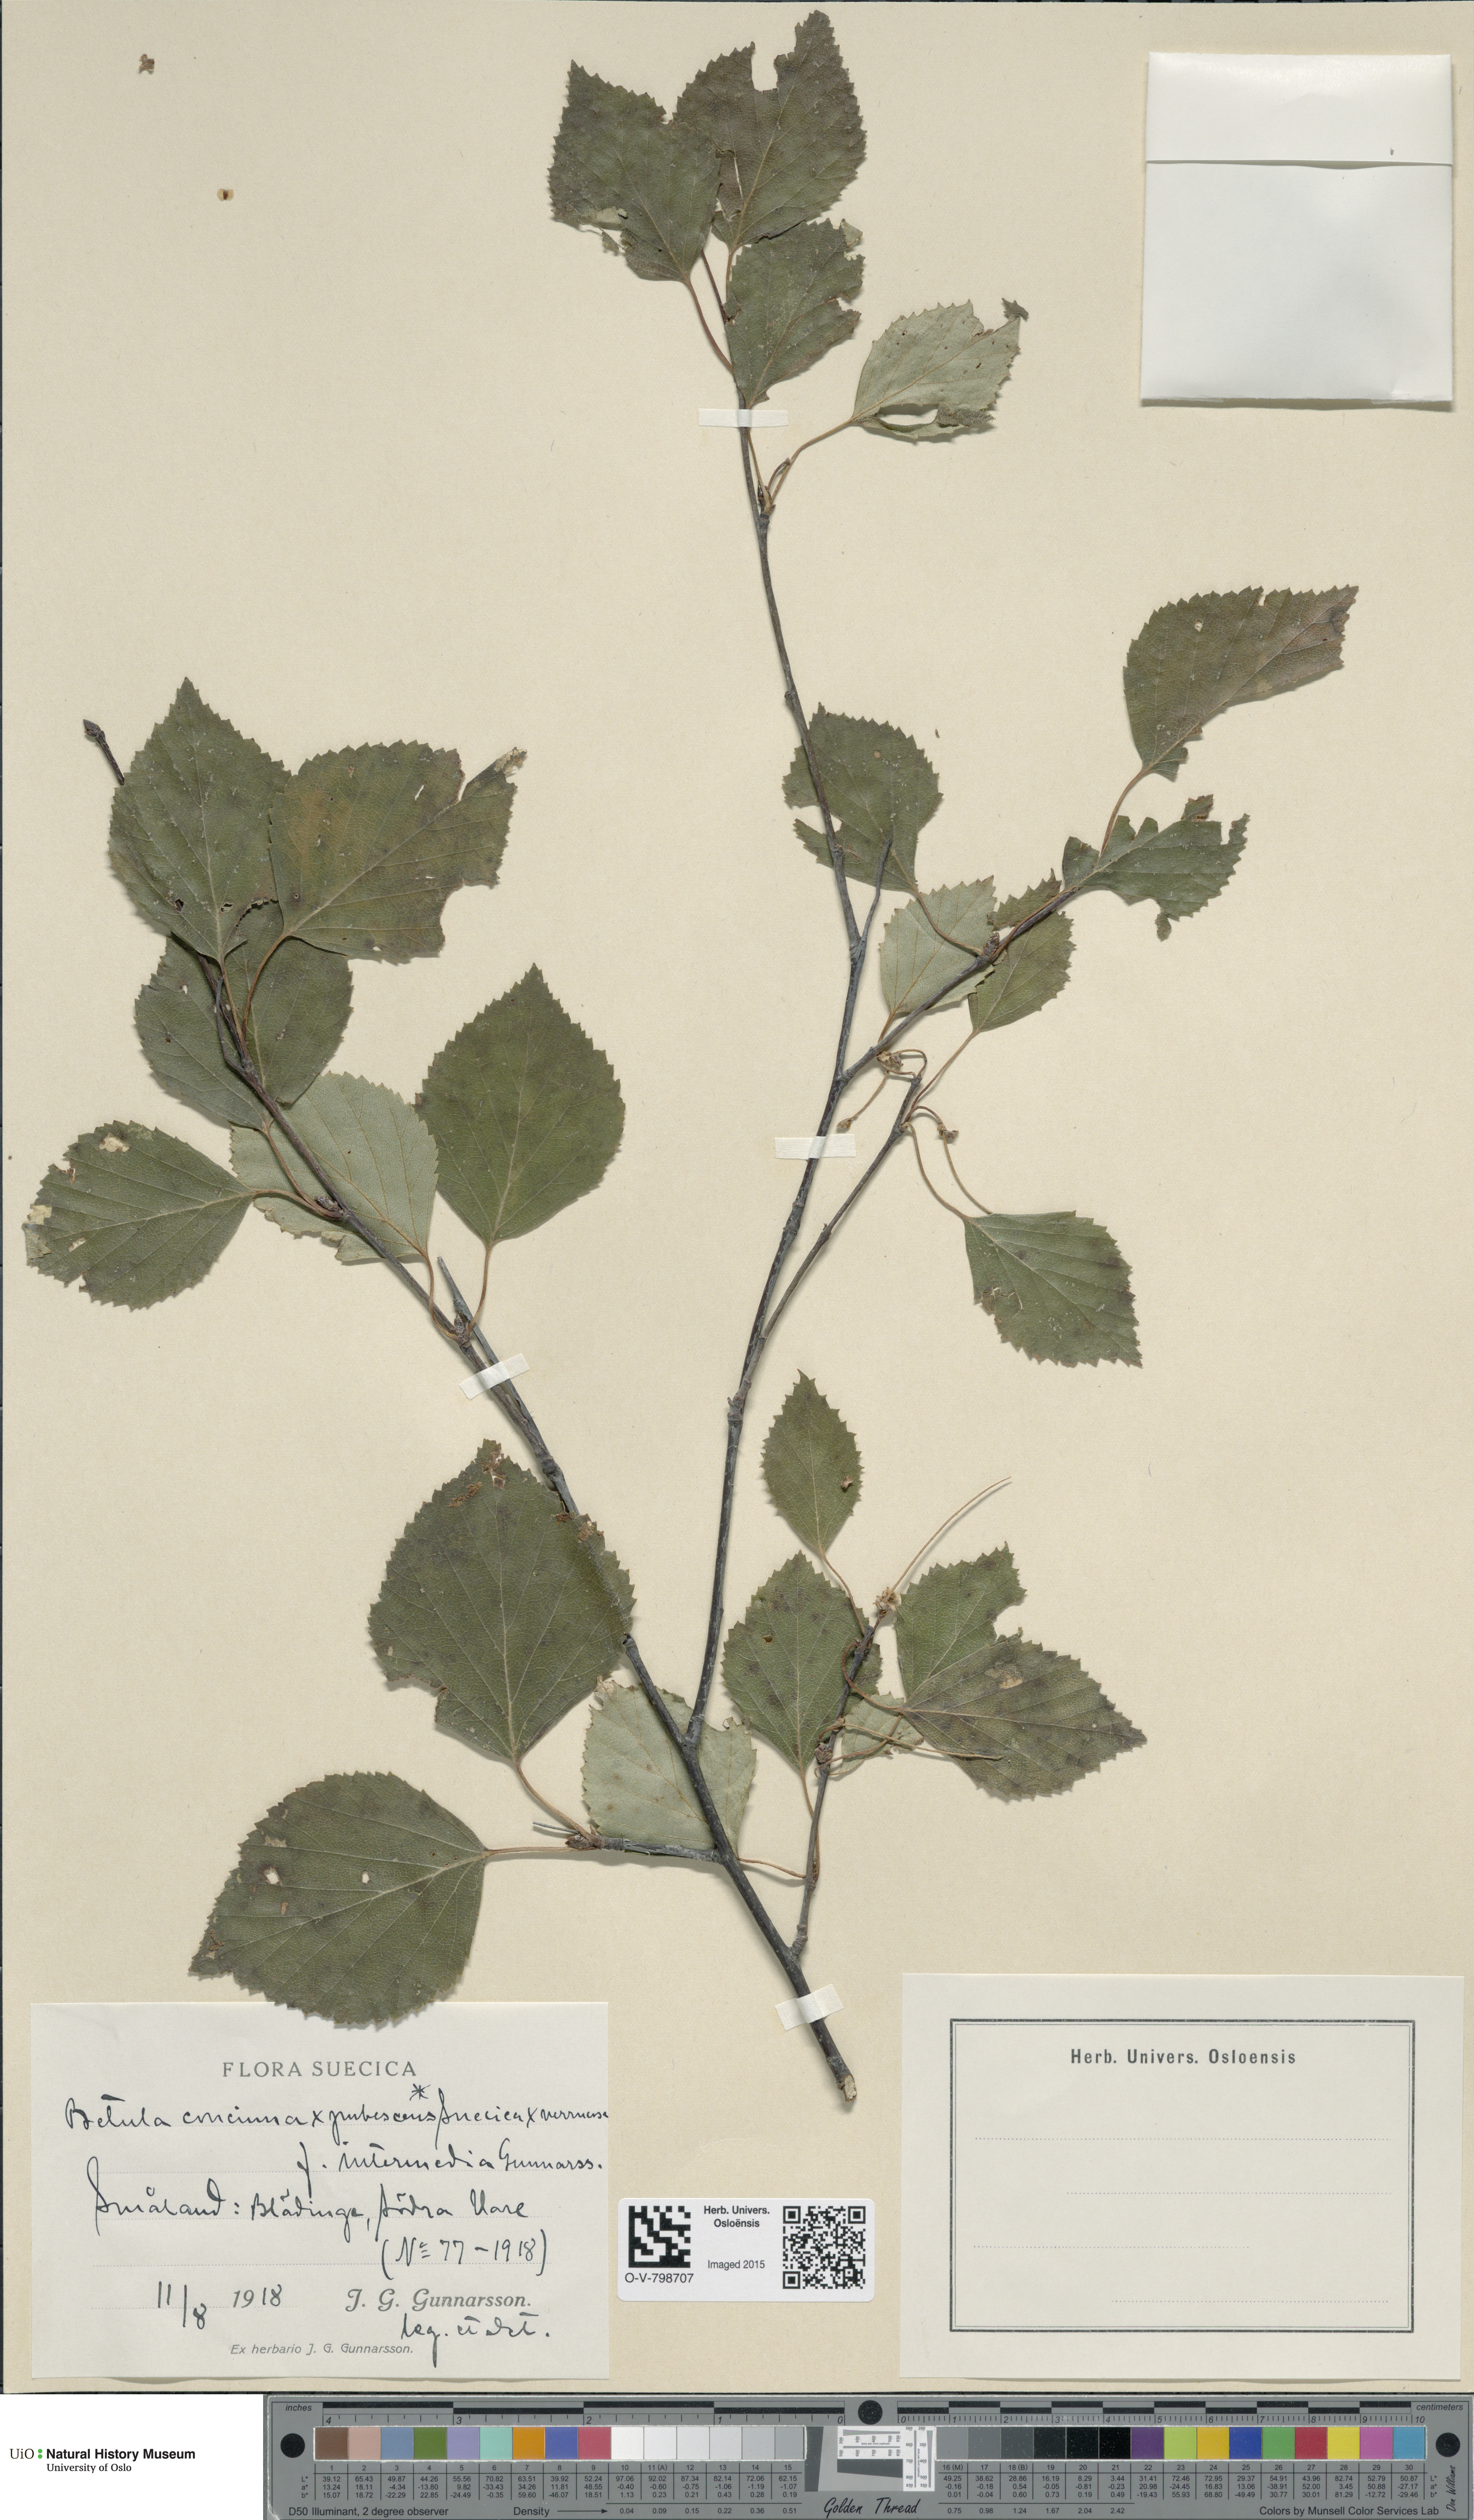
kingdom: Plantae
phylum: Tracheophyta
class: Magnoliopsida
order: Fagales
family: Betulaceae
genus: Betula
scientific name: Betula pubescens
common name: Downy birch
